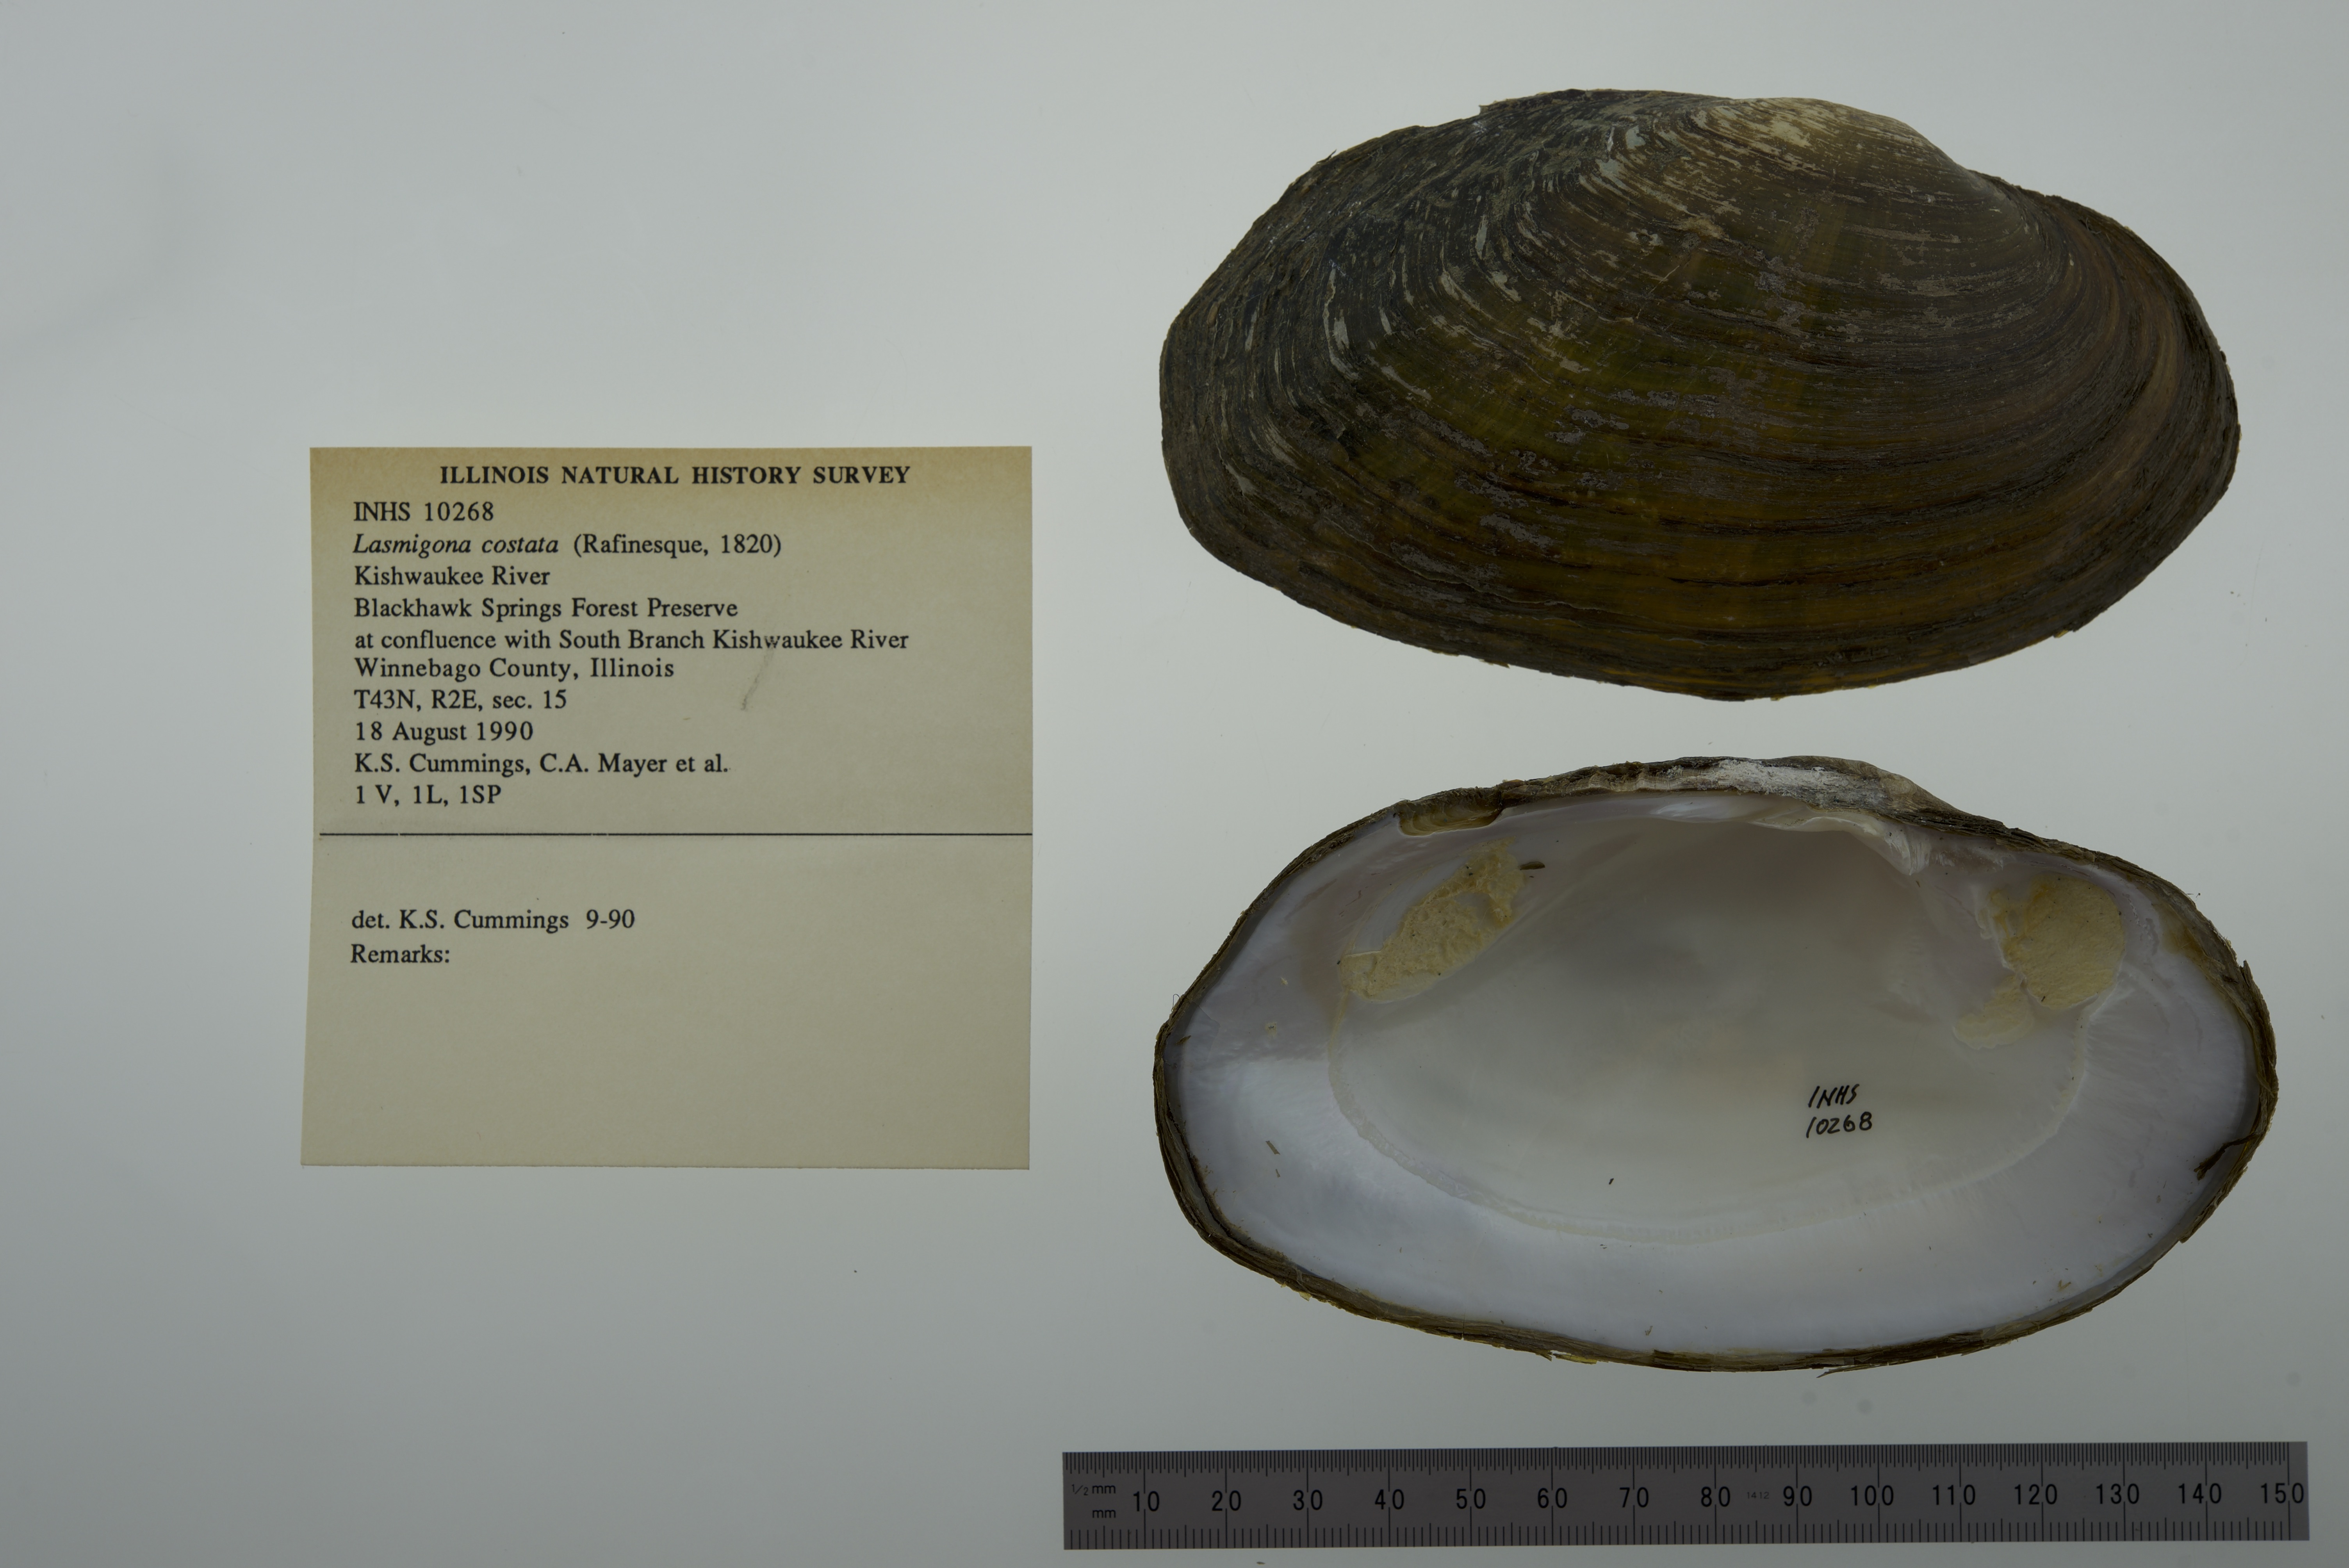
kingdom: Animalia
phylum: Mollusca
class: Bivalvia
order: Unionida
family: Unionidae
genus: Lasmigona
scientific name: Lasmigona costata
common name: Flutedshell
